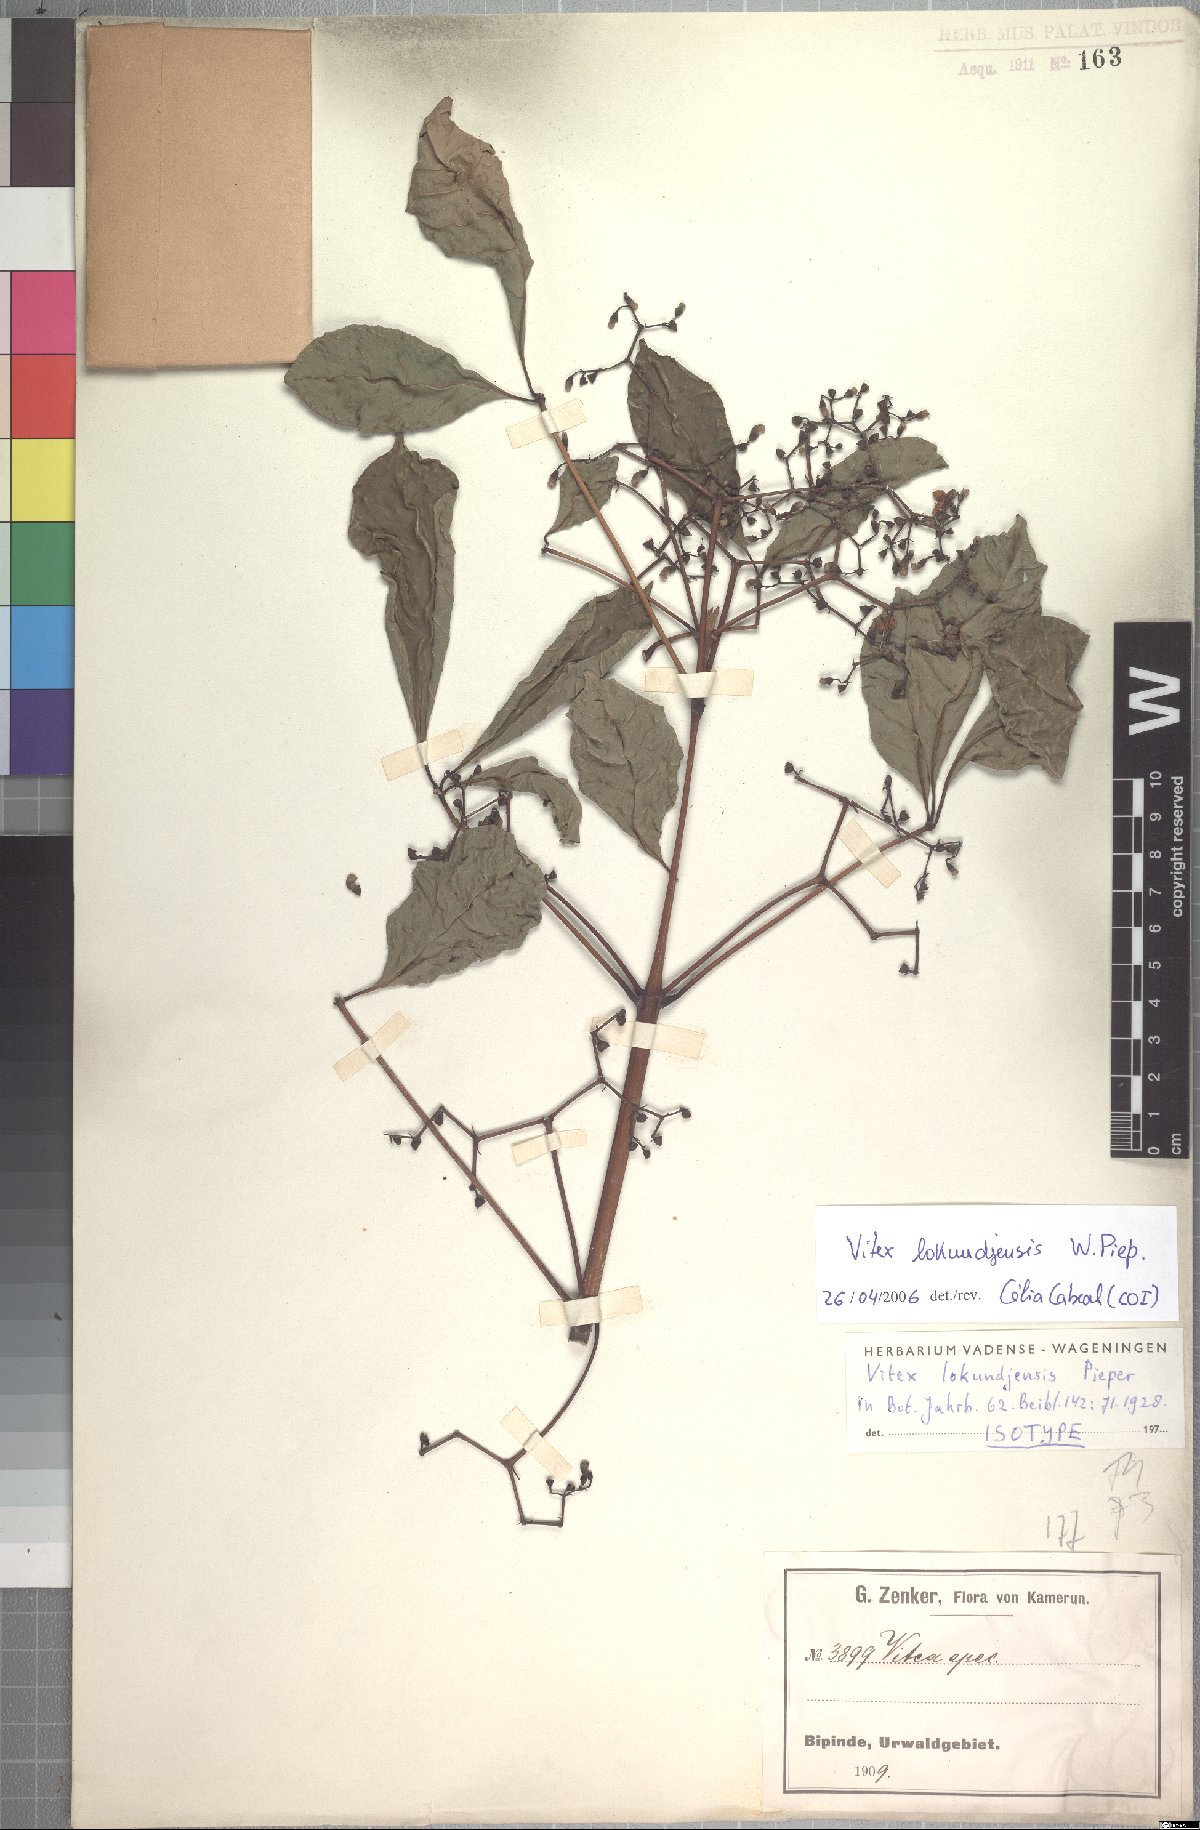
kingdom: Plantae
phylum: Tracheophyta
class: Magnoliopsida
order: Lamiales
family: Lamiaceae
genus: Vitex
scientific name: Vitex lokundjensis
